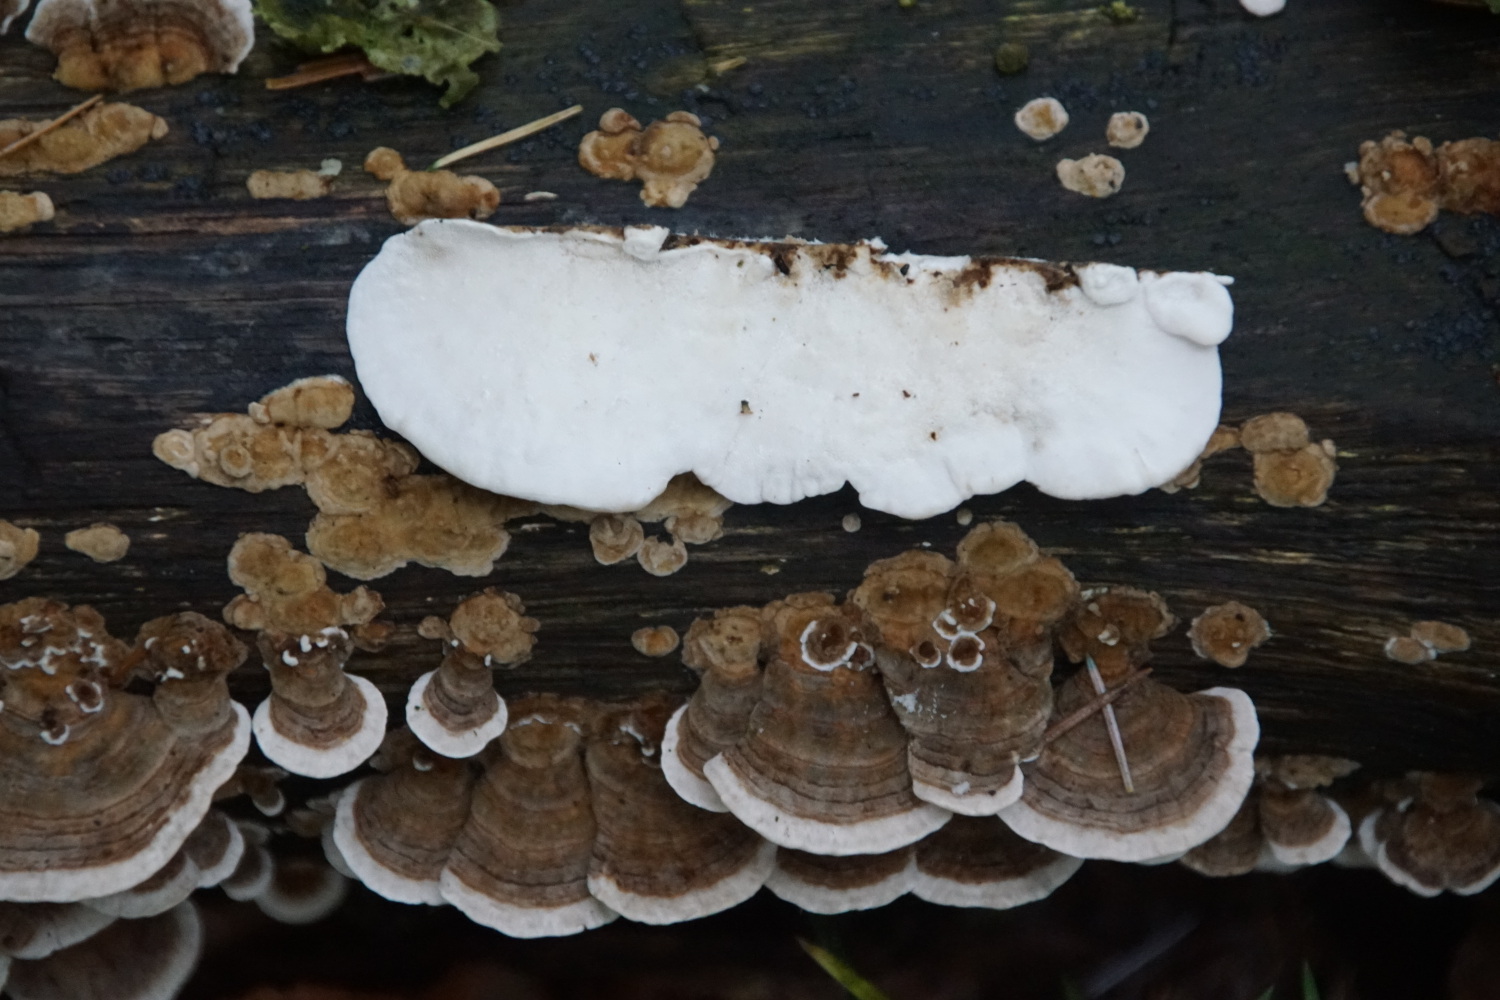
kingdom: Fungi
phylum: Basidiomycota
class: Agaricomycetes
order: Polyporales
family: Polyporaceae
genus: Trametes
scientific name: Trametes versicolor
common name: broget læderporesvamp
